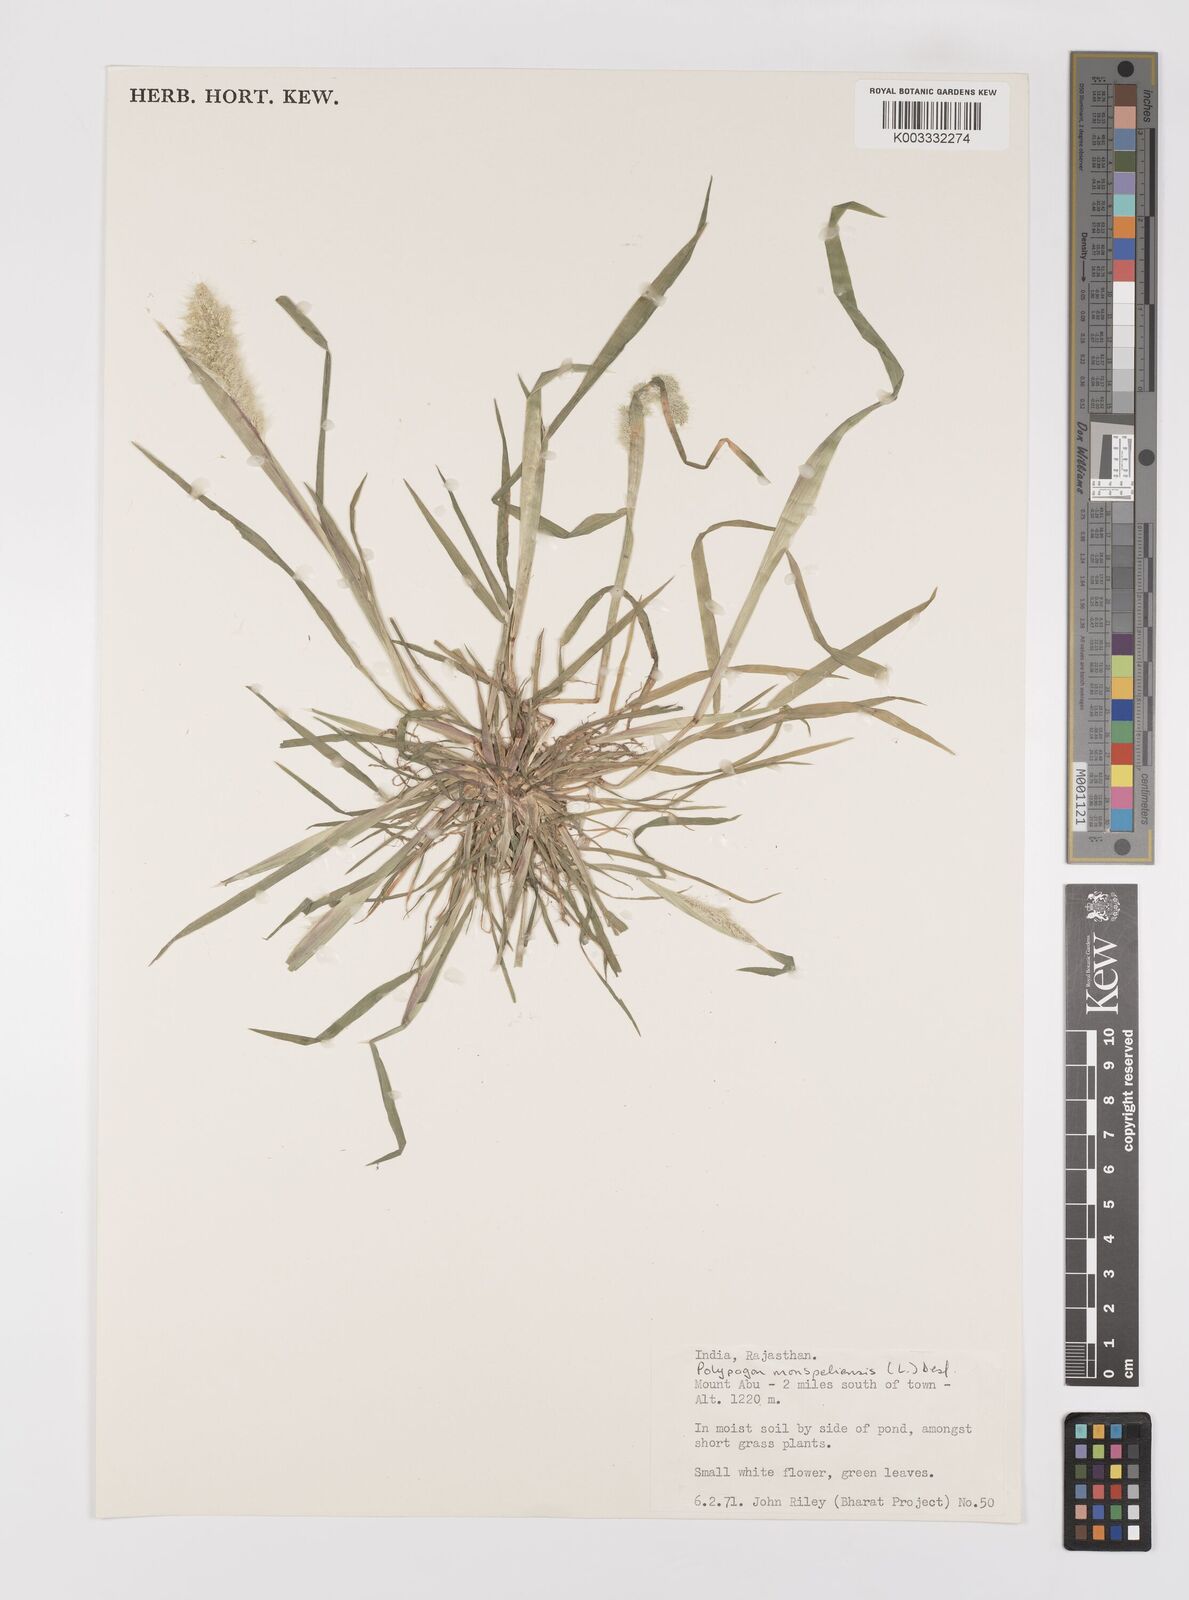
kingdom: Plantae
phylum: Tracheophyta
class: Liliopsida
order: Poales
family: Poaceae
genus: Polypogon
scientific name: Polypogon monspeliensis
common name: Annual rabbitsfoot grass
